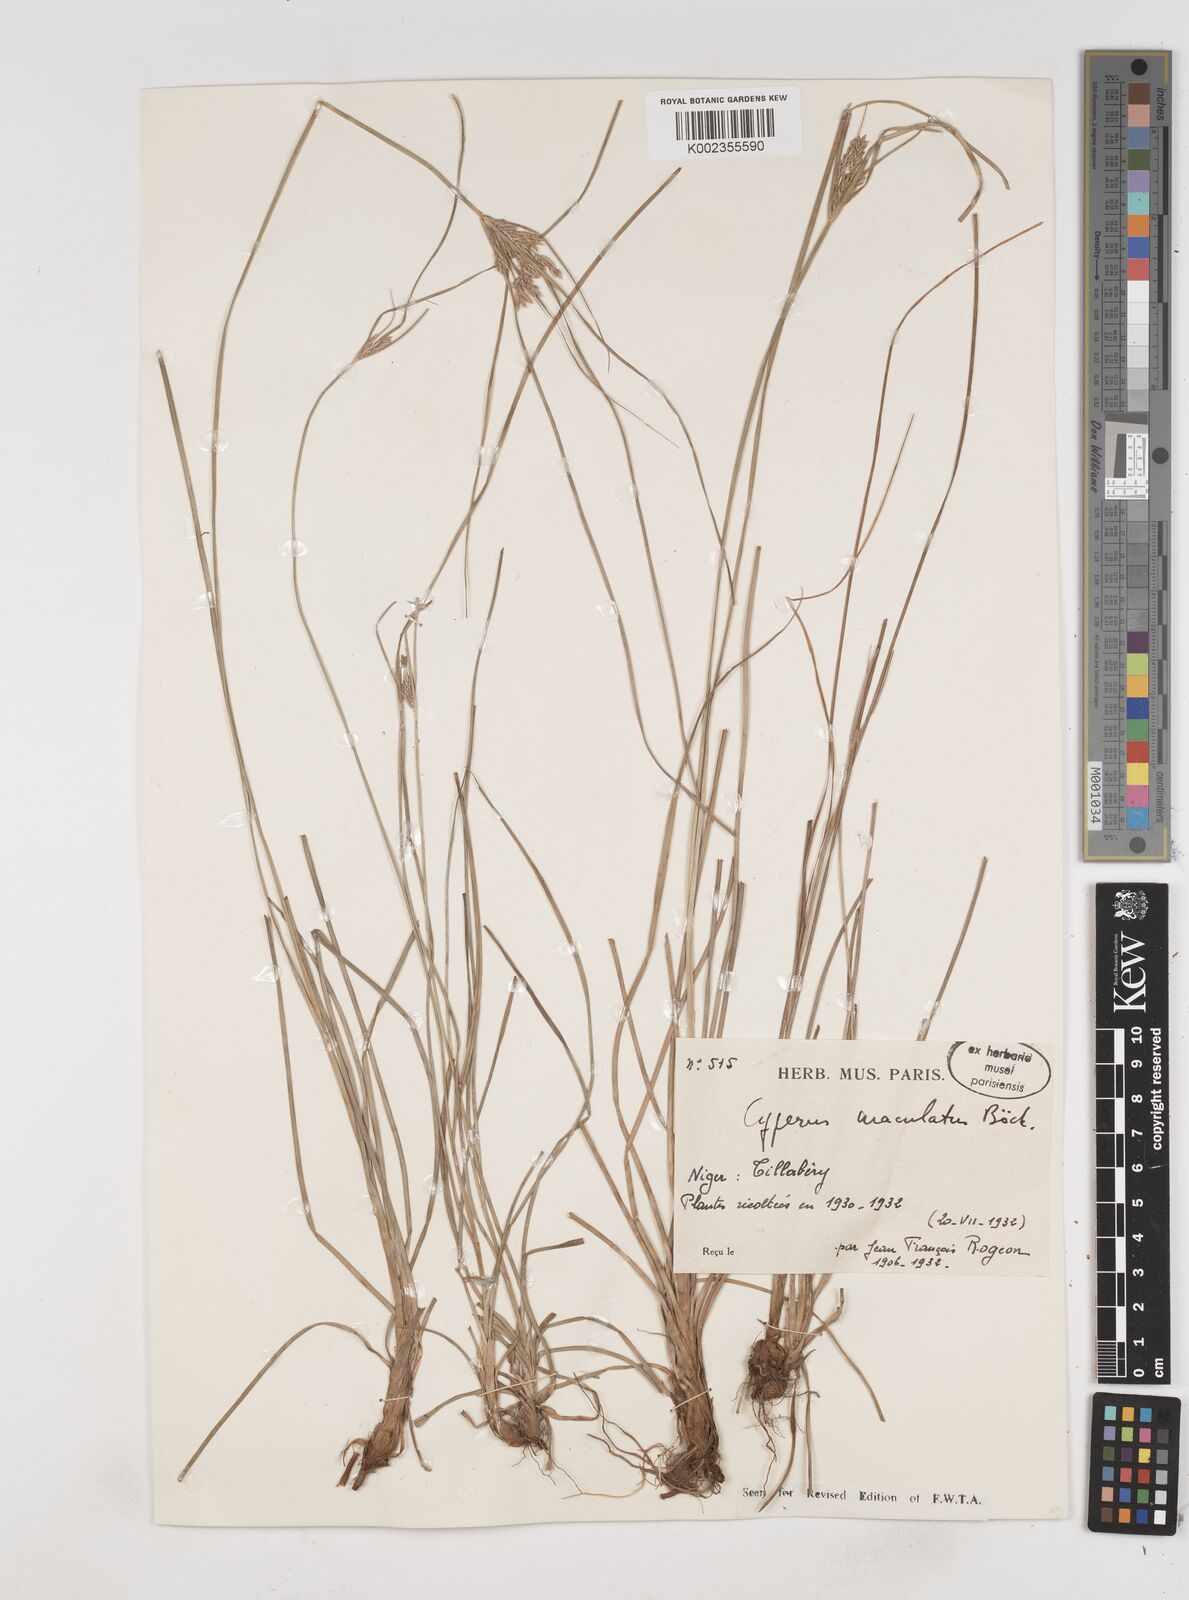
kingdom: Plantae
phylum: Tracheophyta
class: Liliopsida
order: Poales
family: Cyperaceae
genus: Cyperus
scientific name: Cyperus maculatus
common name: Maculated sedge
